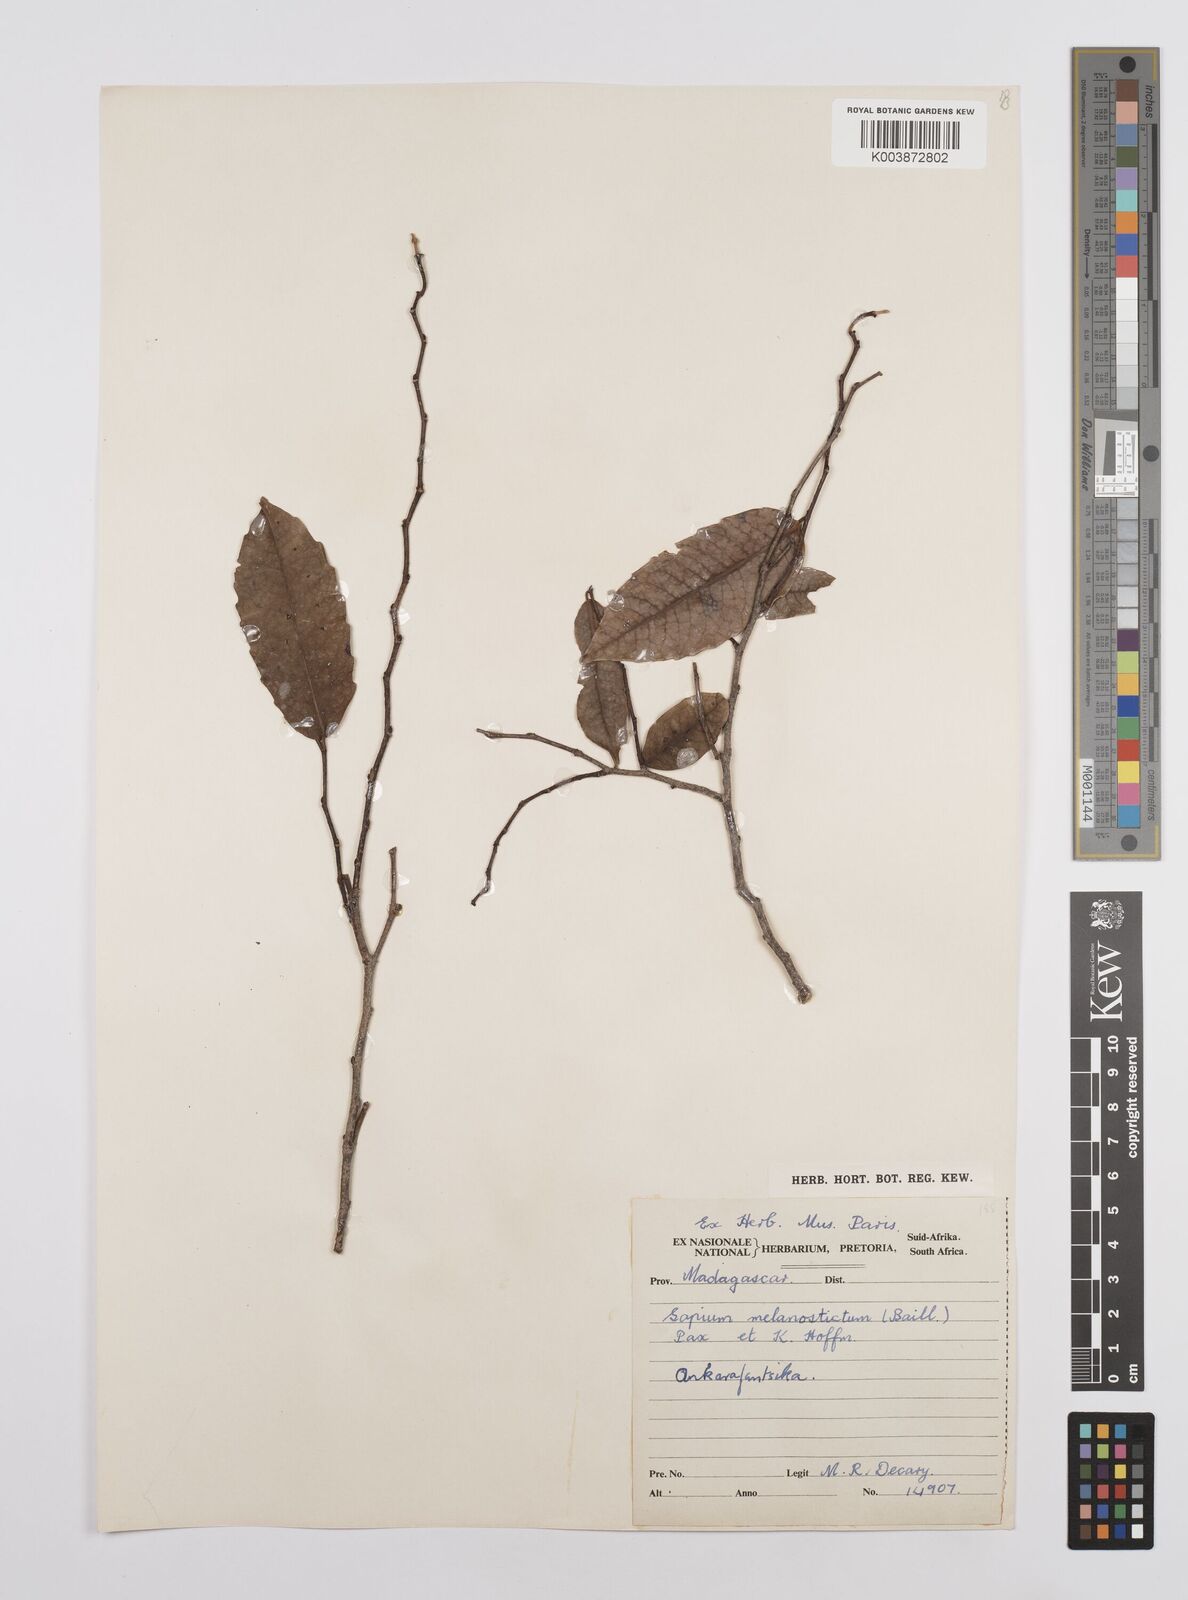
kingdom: Plantae
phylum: Tracheophyta
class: Magnoliopsida
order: Malpighiales
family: Euphorbiaceae
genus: Sclerocroton
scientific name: Sclerocroton melanostictus
